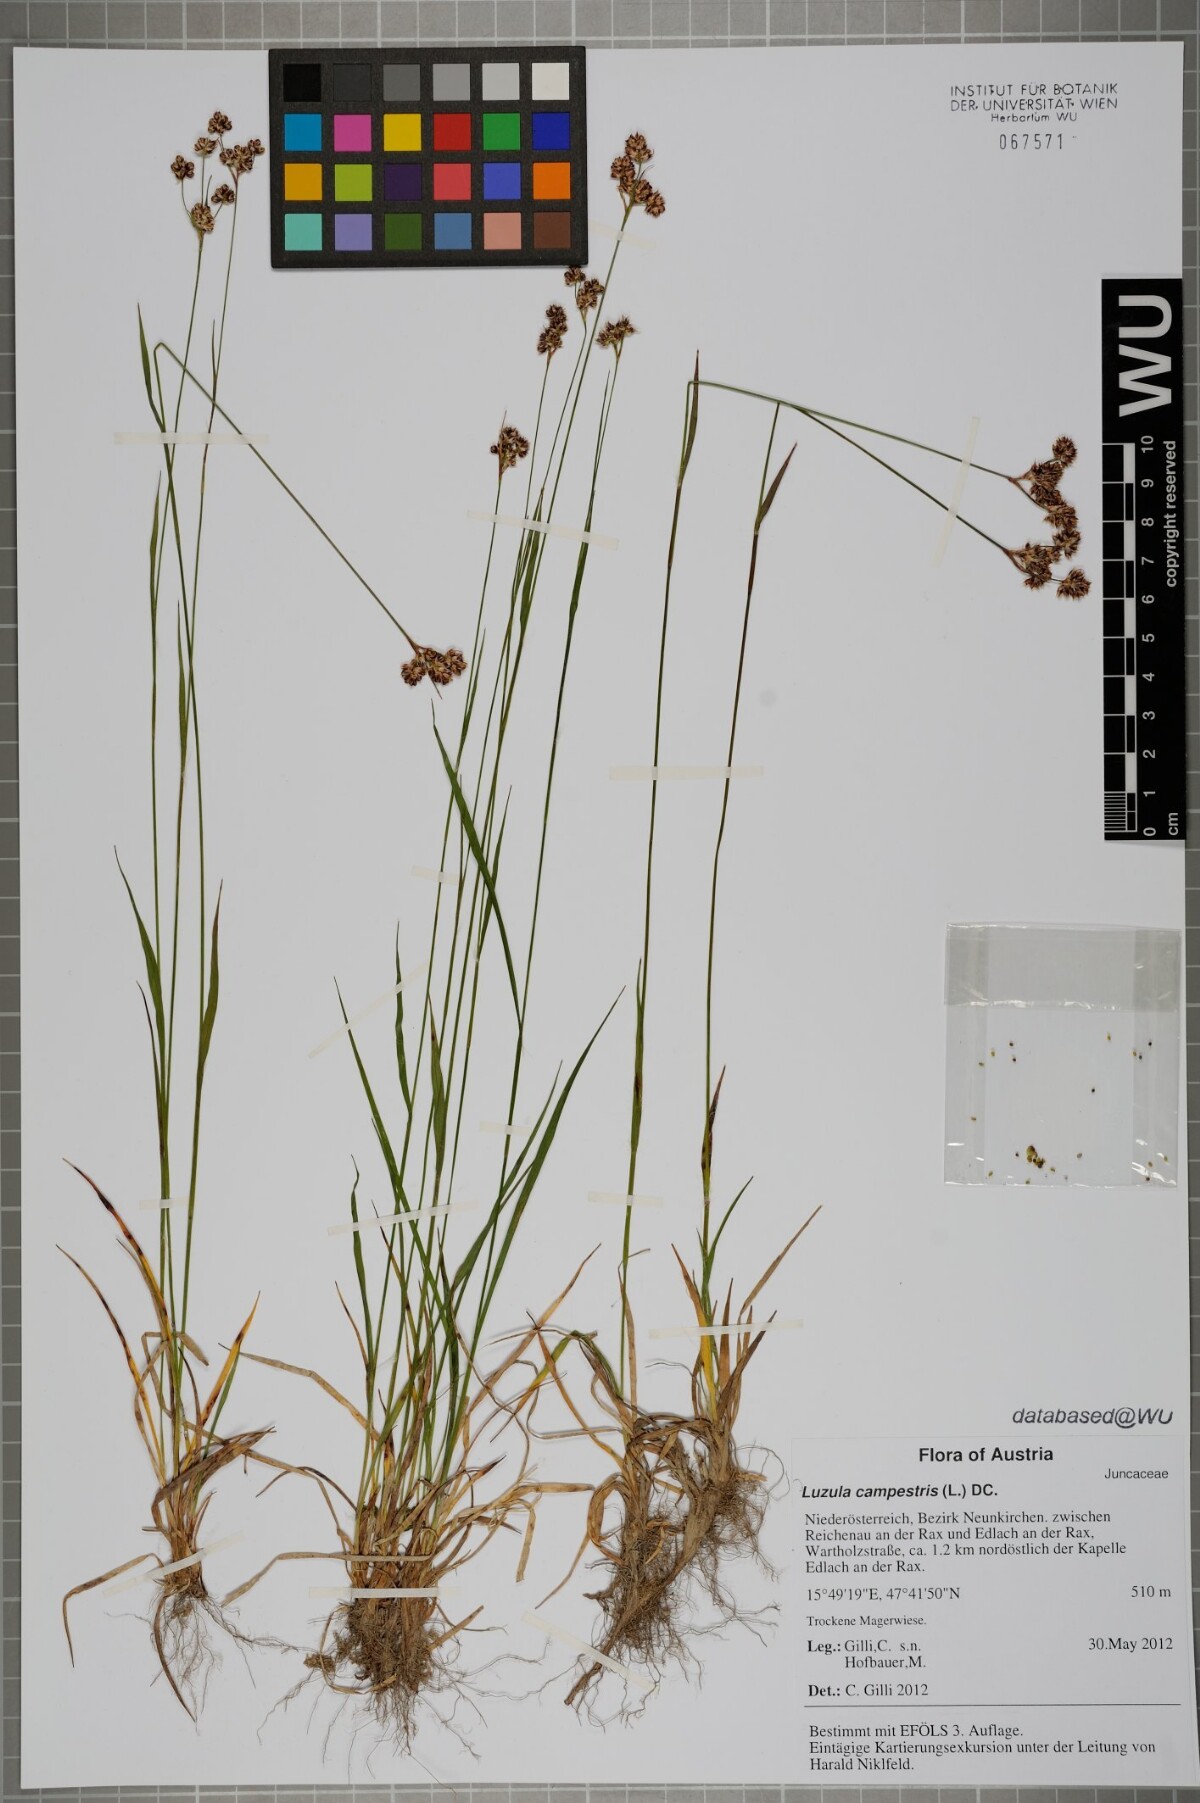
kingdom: Plantae
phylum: Tracheophyta
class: Liliopsida
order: Poales
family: Juncaceae
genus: Luzula
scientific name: Luzula campestris
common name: Field wood-rush
